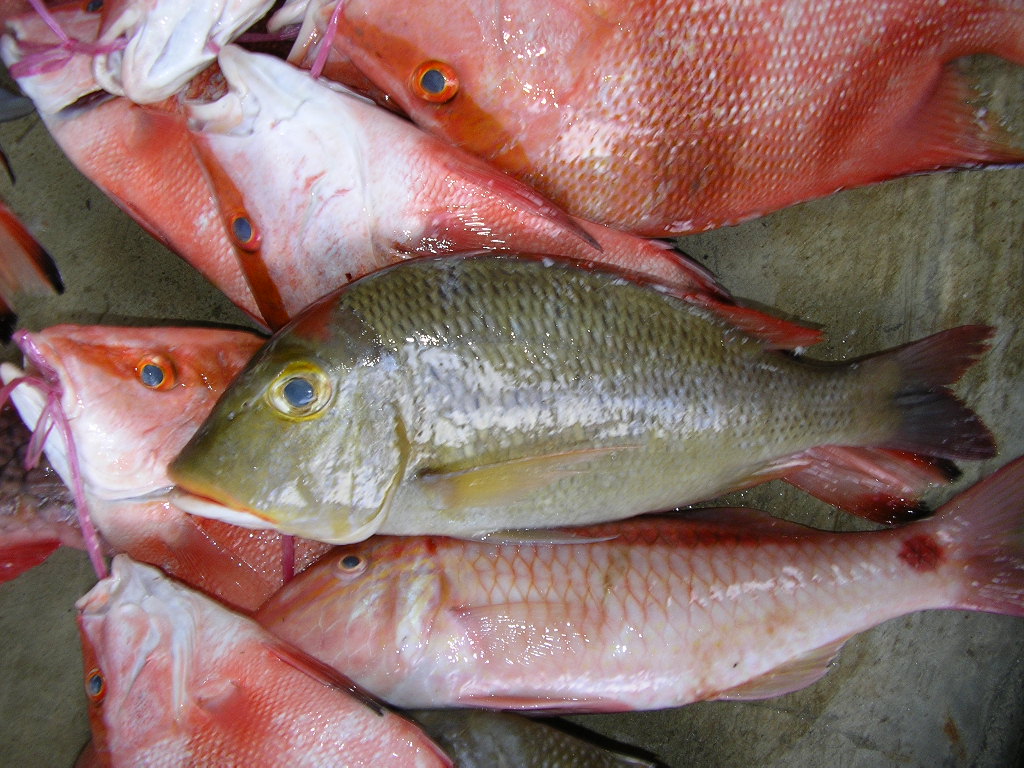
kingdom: Animalia
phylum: Chordata
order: Perciformes
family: Lethrinidae
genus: Lethrinus
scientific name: Lethrinus mahsena
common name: Sky emperor
